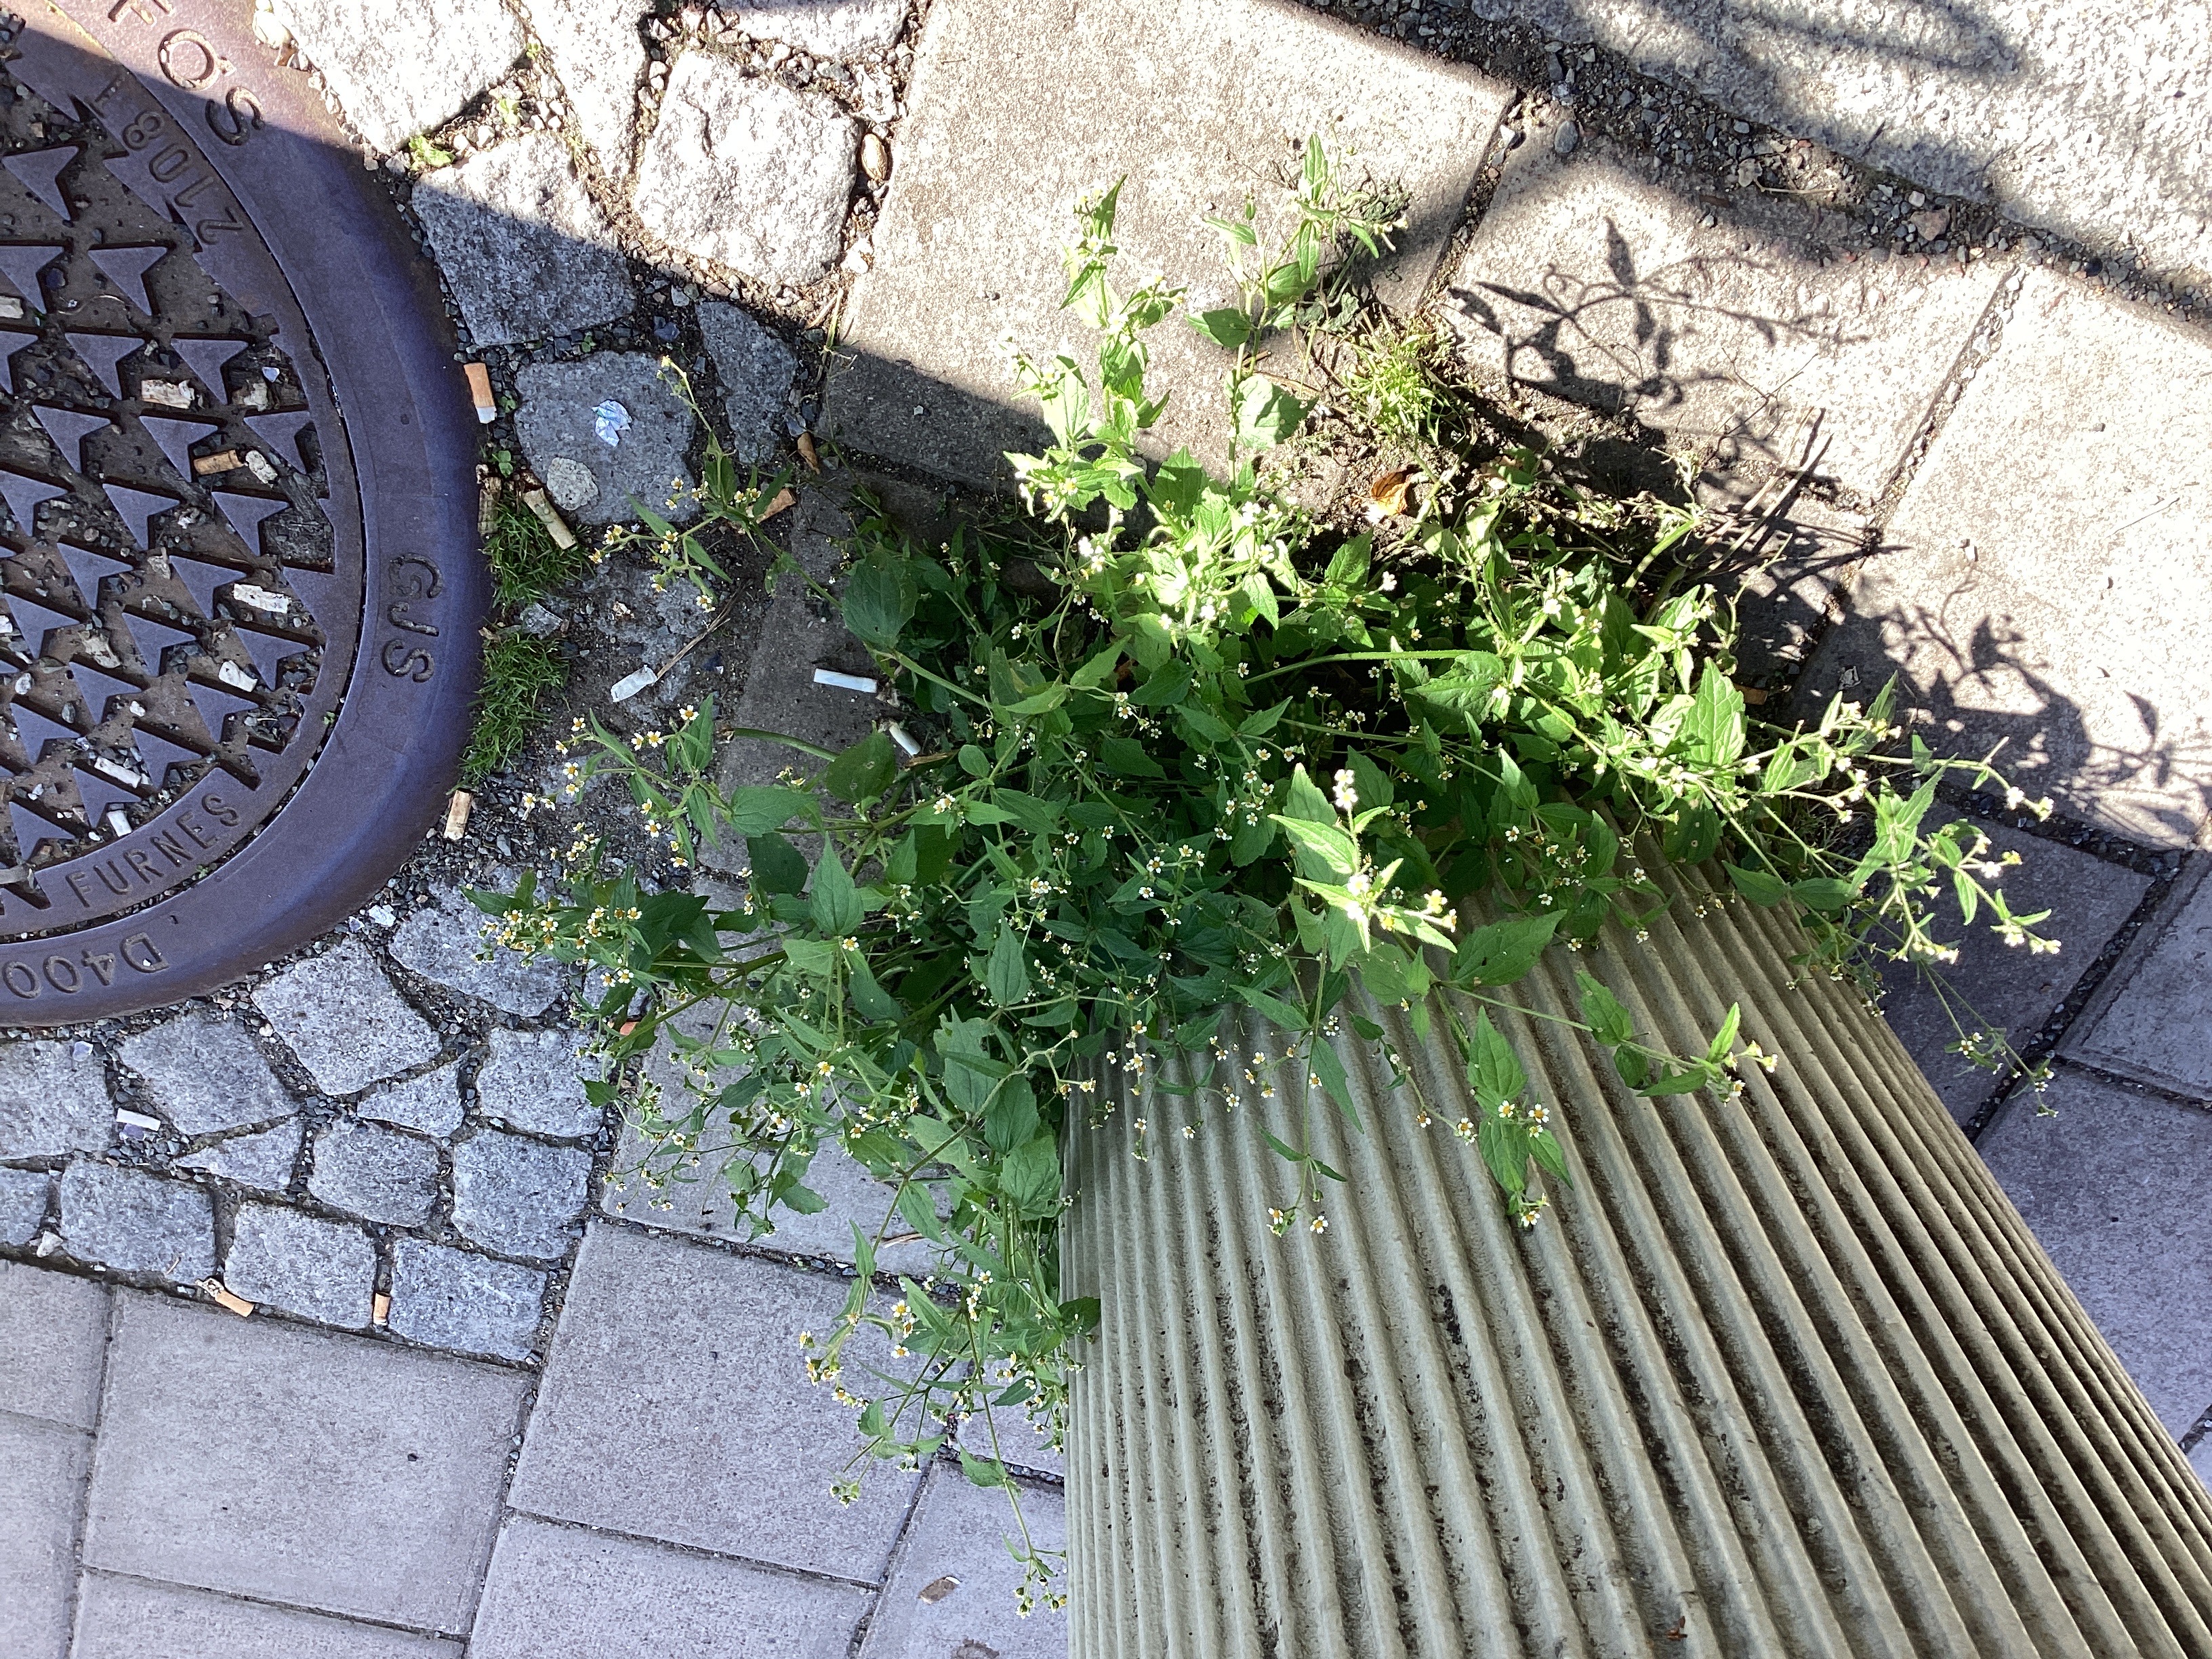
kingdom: Plantae
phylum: Tracheophyta
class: Magnoliopsida
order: Asterales
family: Asteraceae
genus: Galinsoga
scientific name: Galinsoga quadriradiata
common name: nesleskjellfrø
